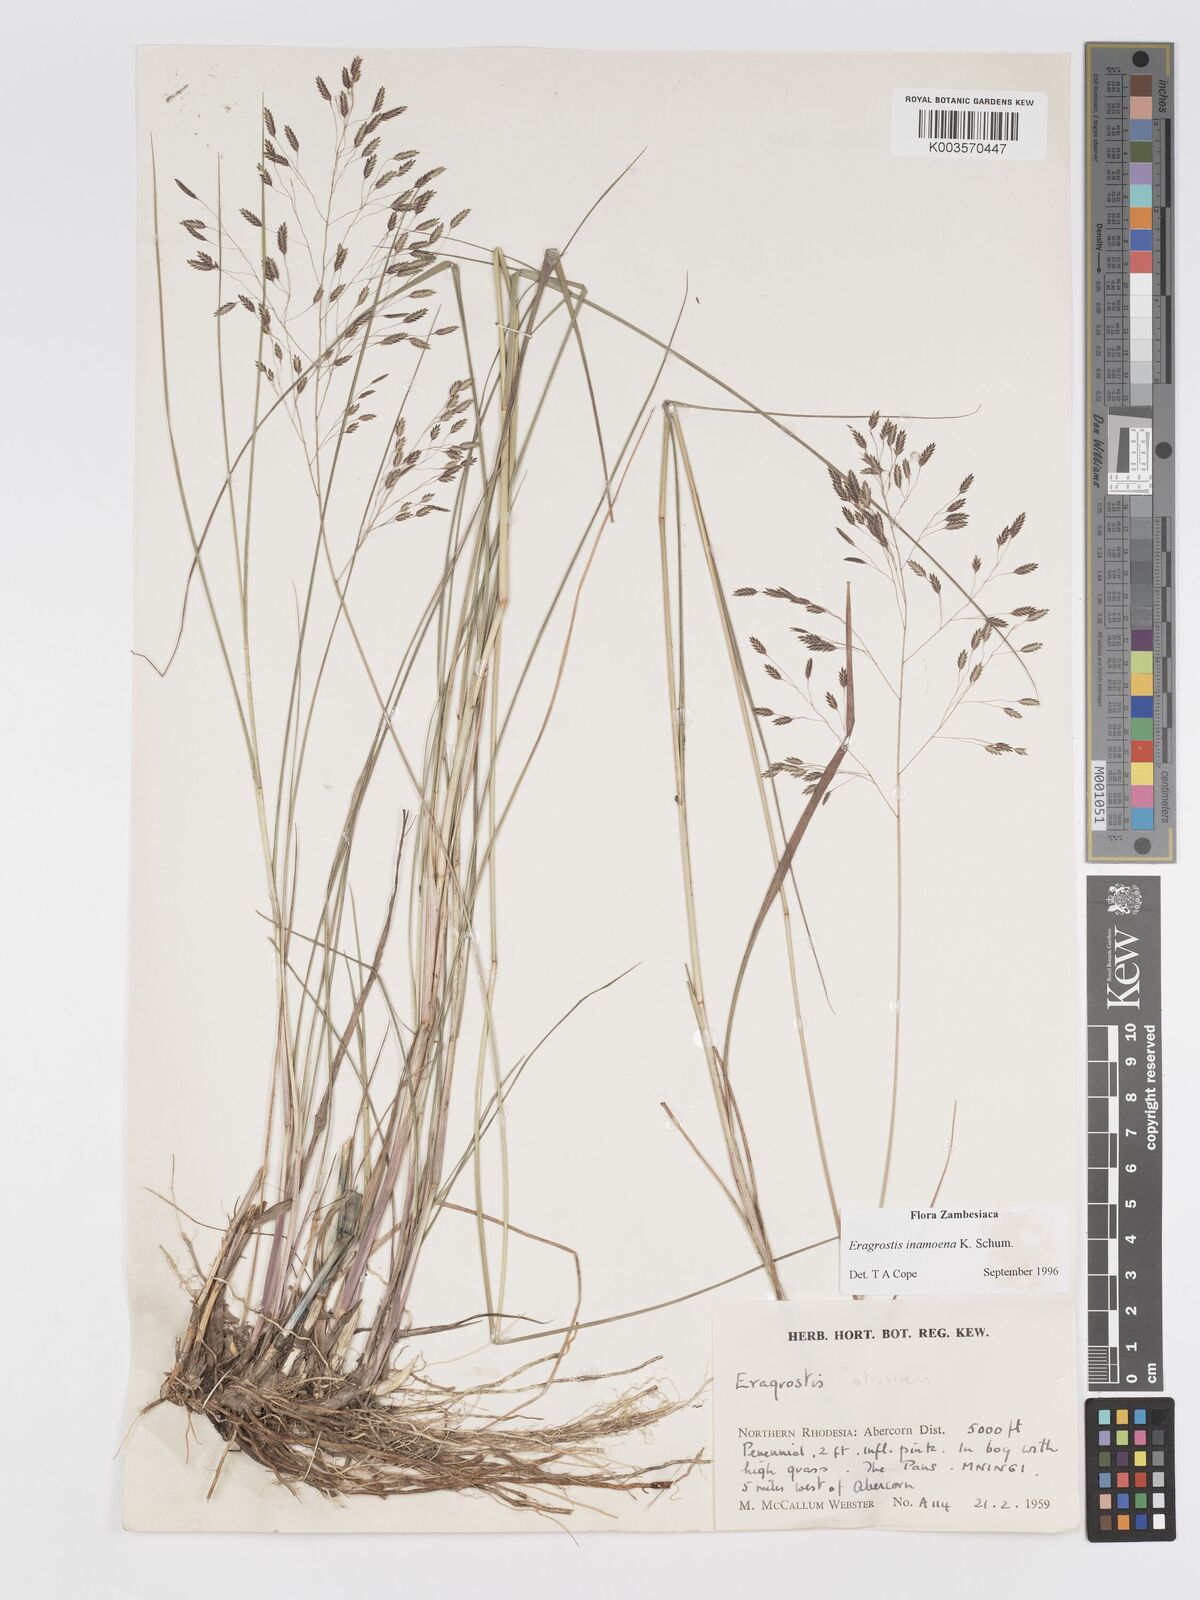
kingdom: Plantae
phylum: Tracheophyta
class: Liliopsida
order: Poales
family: Poaceae
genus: Eragrostis
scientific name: Eragrostis inamoena
